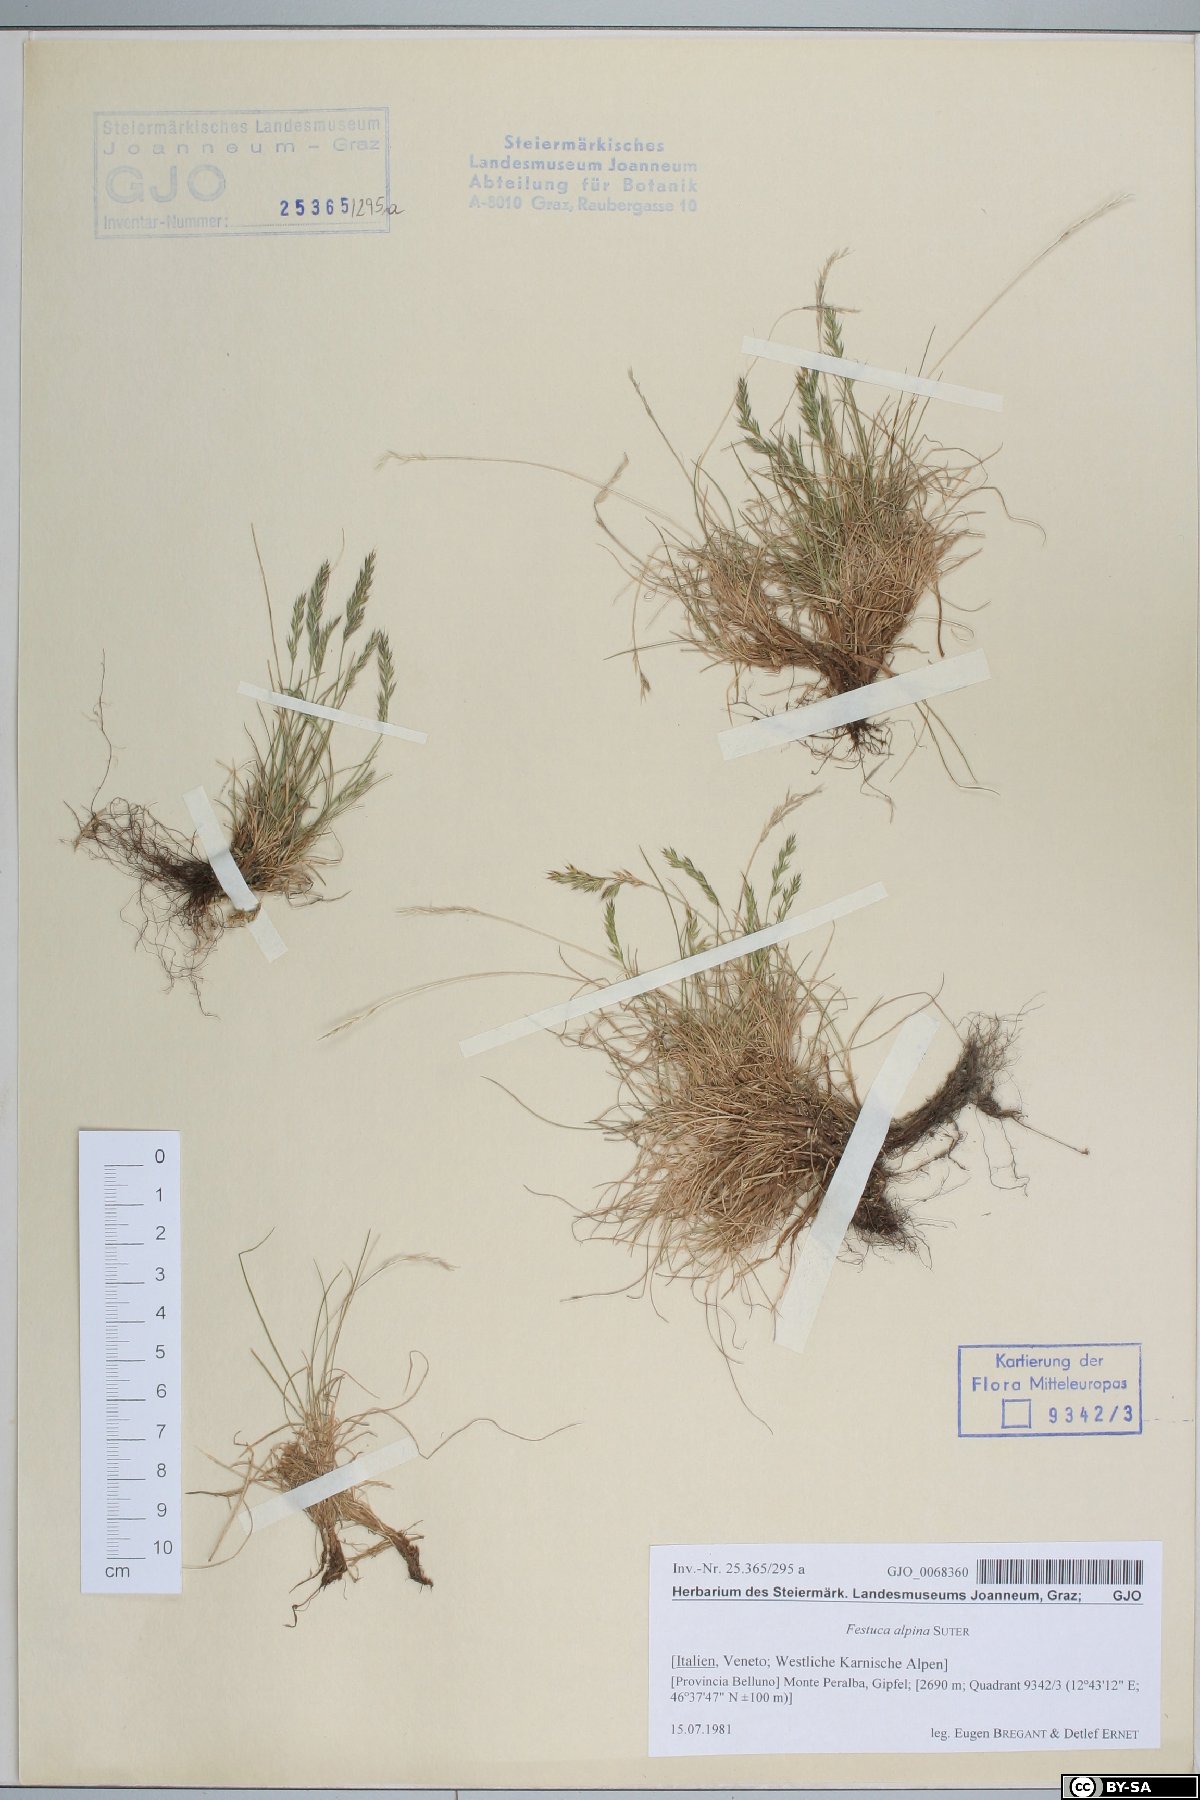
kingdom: Plantae
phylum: Tracheophyta
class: Liliopsida
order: Poales
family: Poaceae
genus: Festuca
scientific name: Festuca alpina
